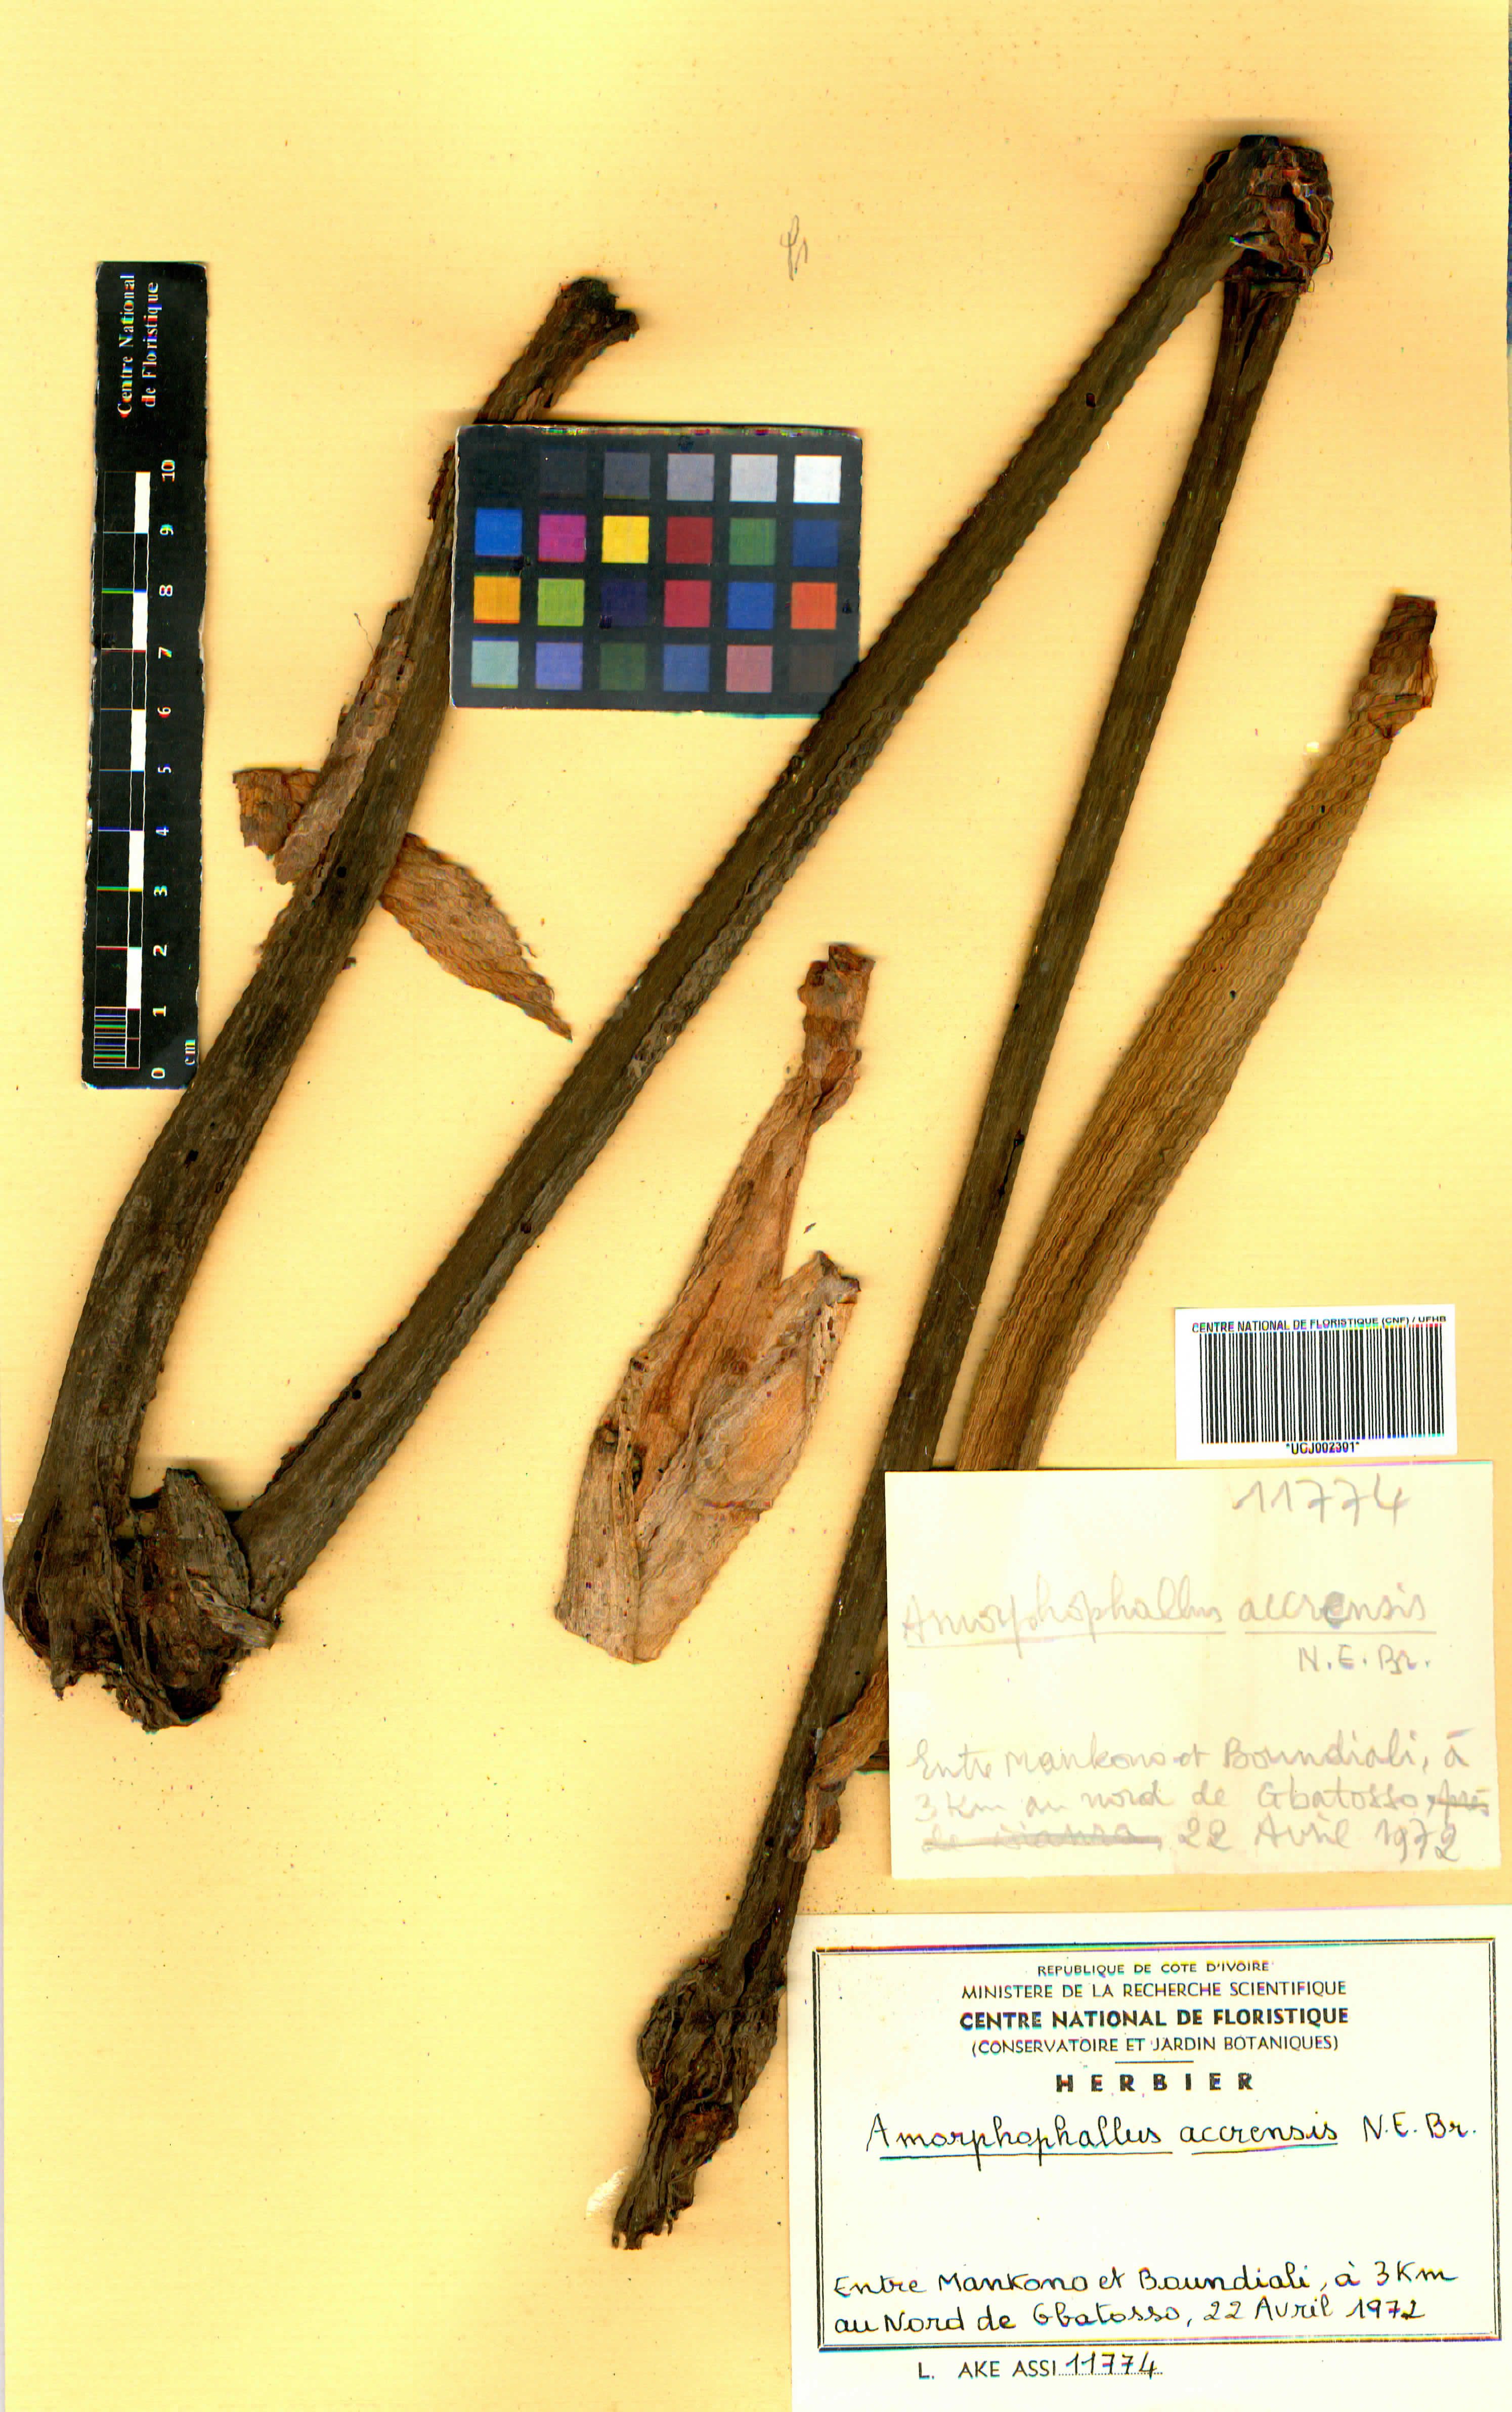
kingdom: Plantae
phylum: Tracheophyta
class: Liliopsida
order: Alismatales
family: Araceae
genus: Amorphophallus
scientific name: Amorphophallus johnsonii
